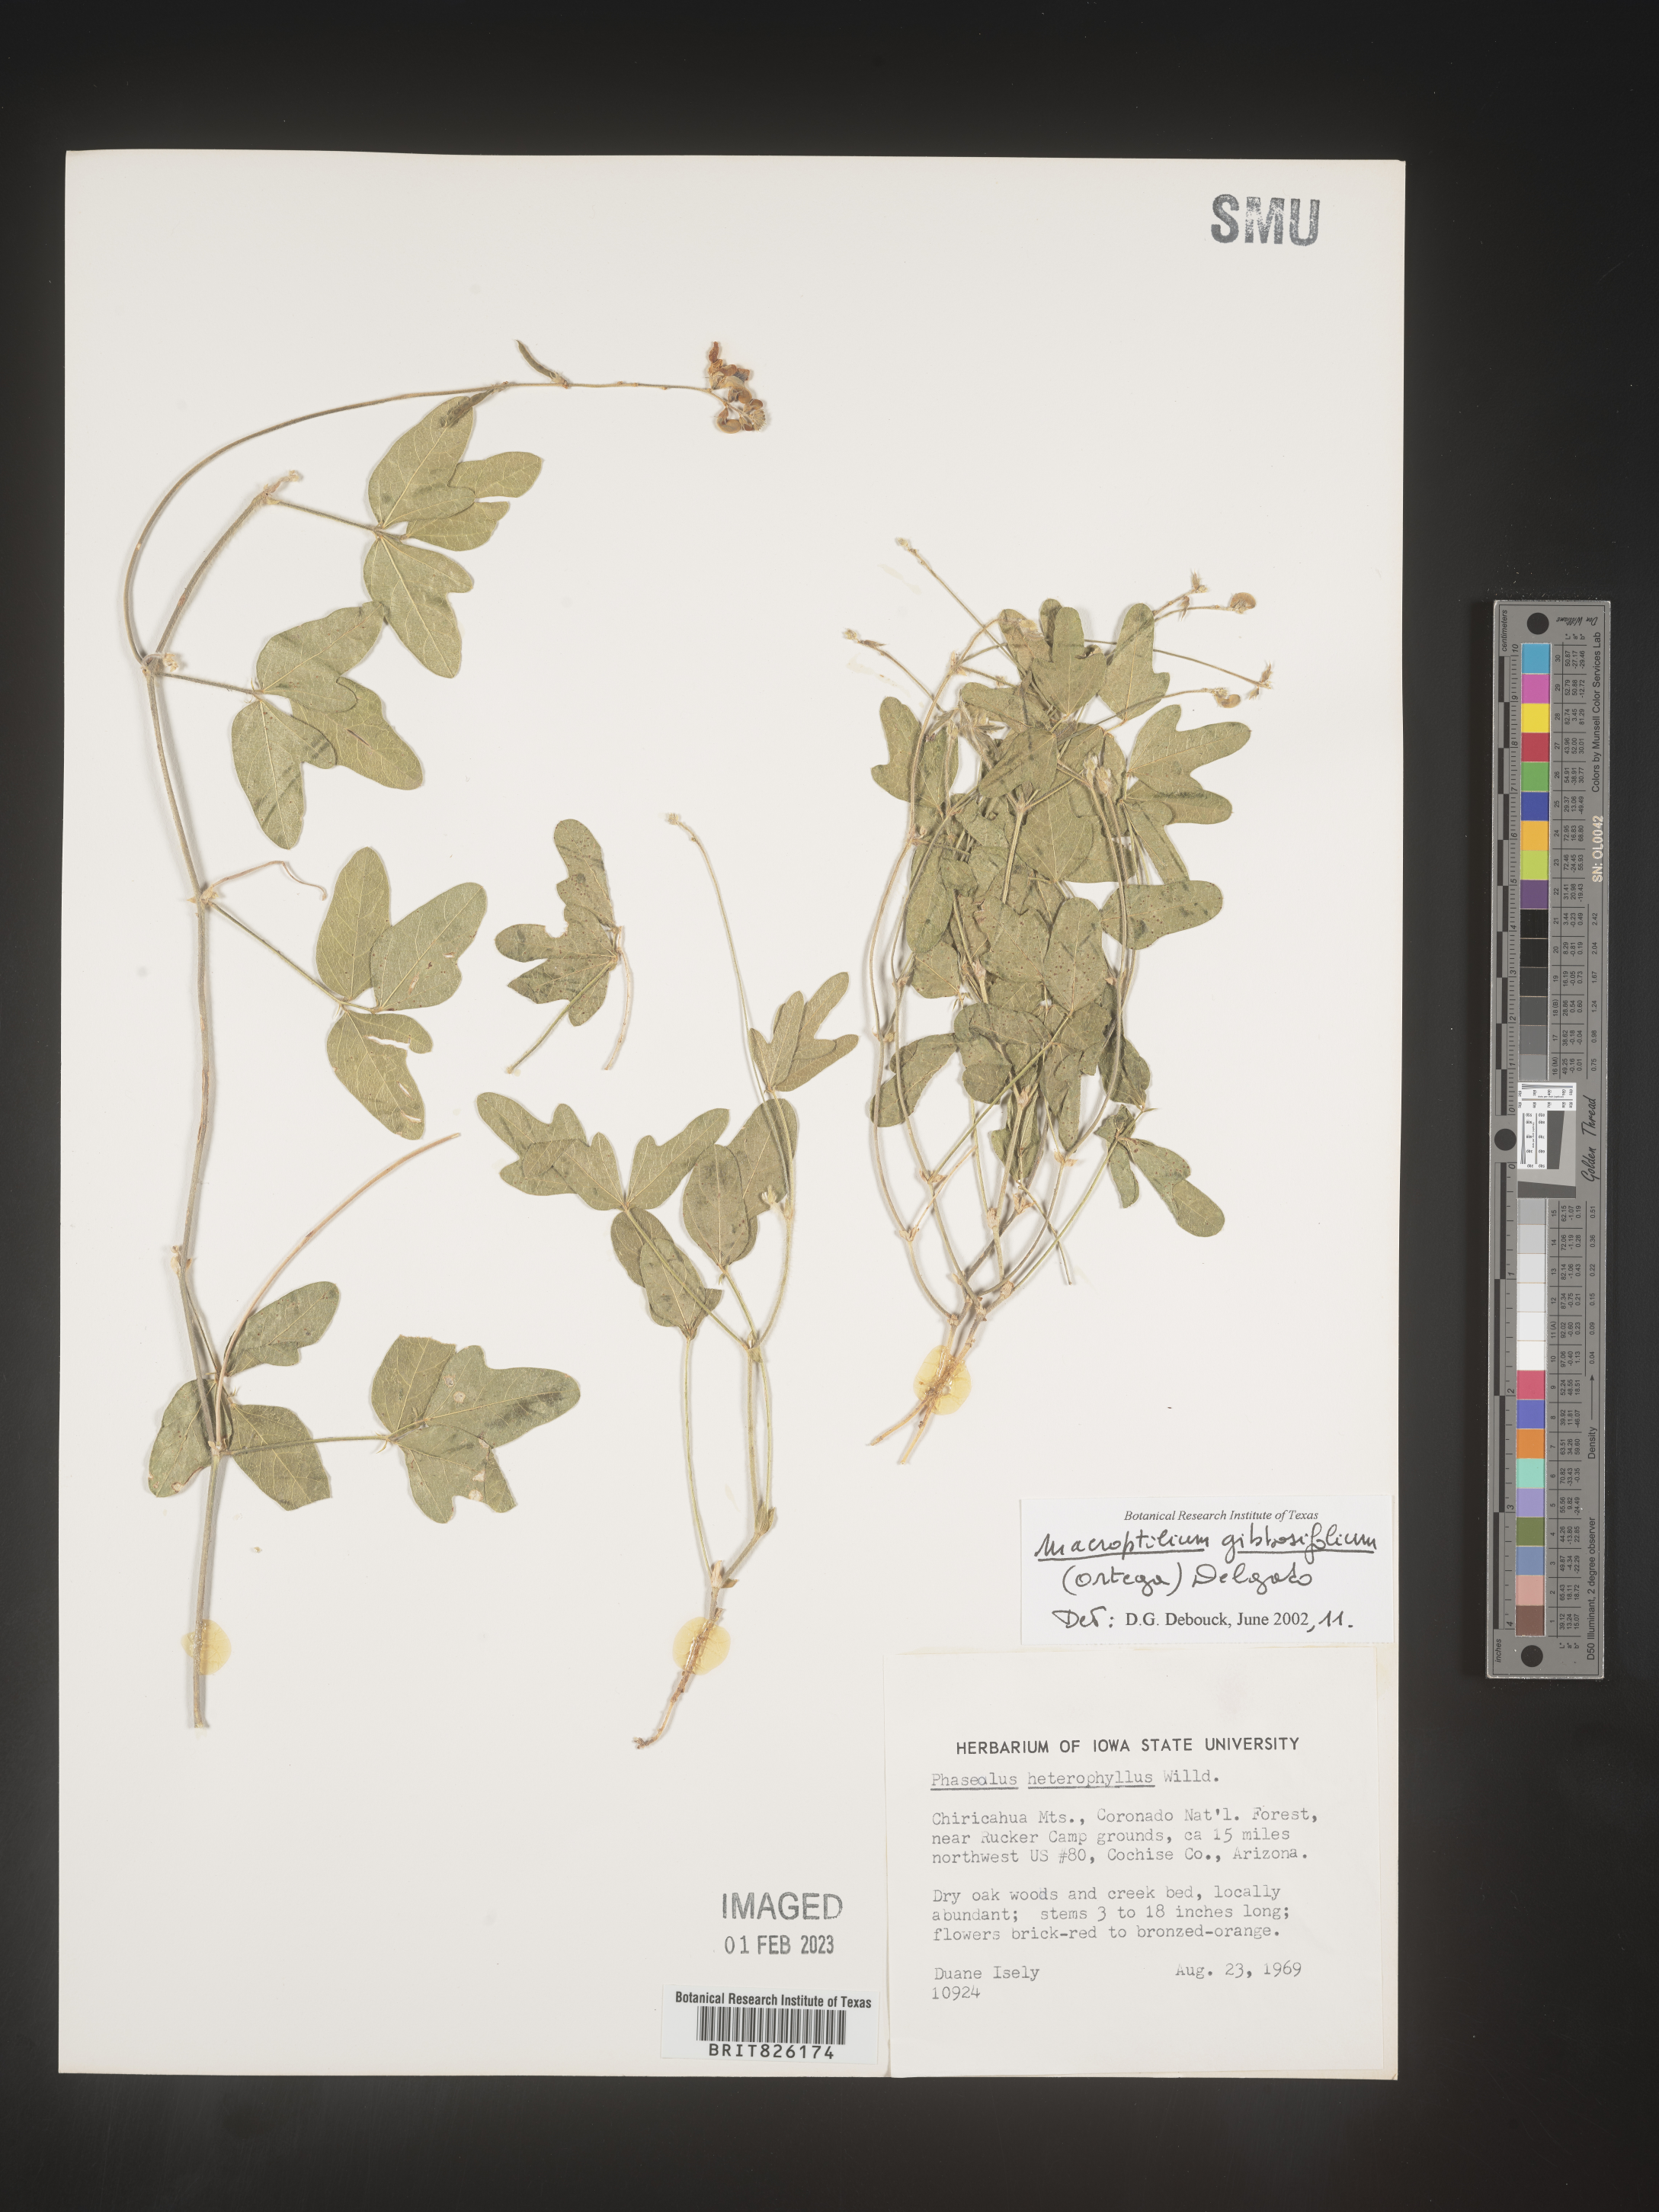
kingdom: Plantae
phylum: Tracheophyta
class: Magnoliopsida
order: Fabales
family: Fabaceae
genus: Macroptilium
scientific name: Macroptilium
